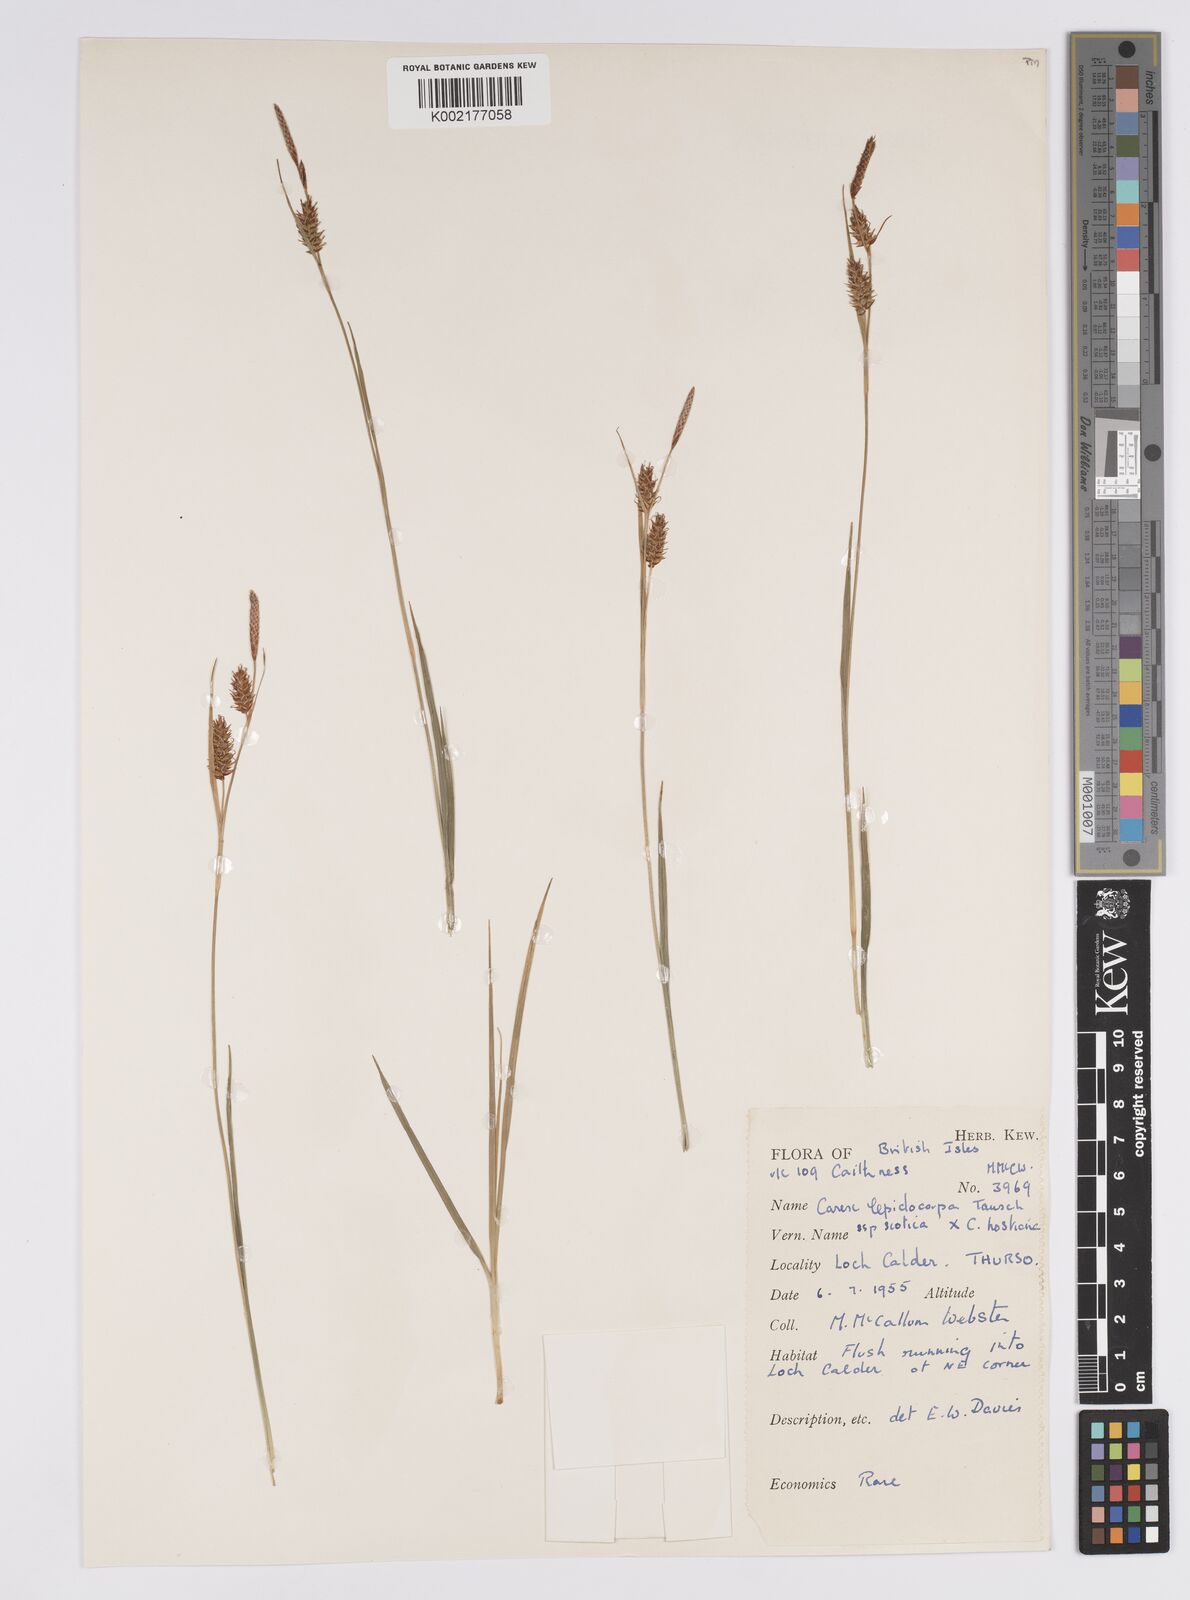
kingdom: Plantae
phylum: Tracheophyta
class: Liliopsida
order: Poales
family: Cyperaceae
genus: Carex
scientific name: Carex lepidocarpa
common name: Long-stalked yellow-sedge
